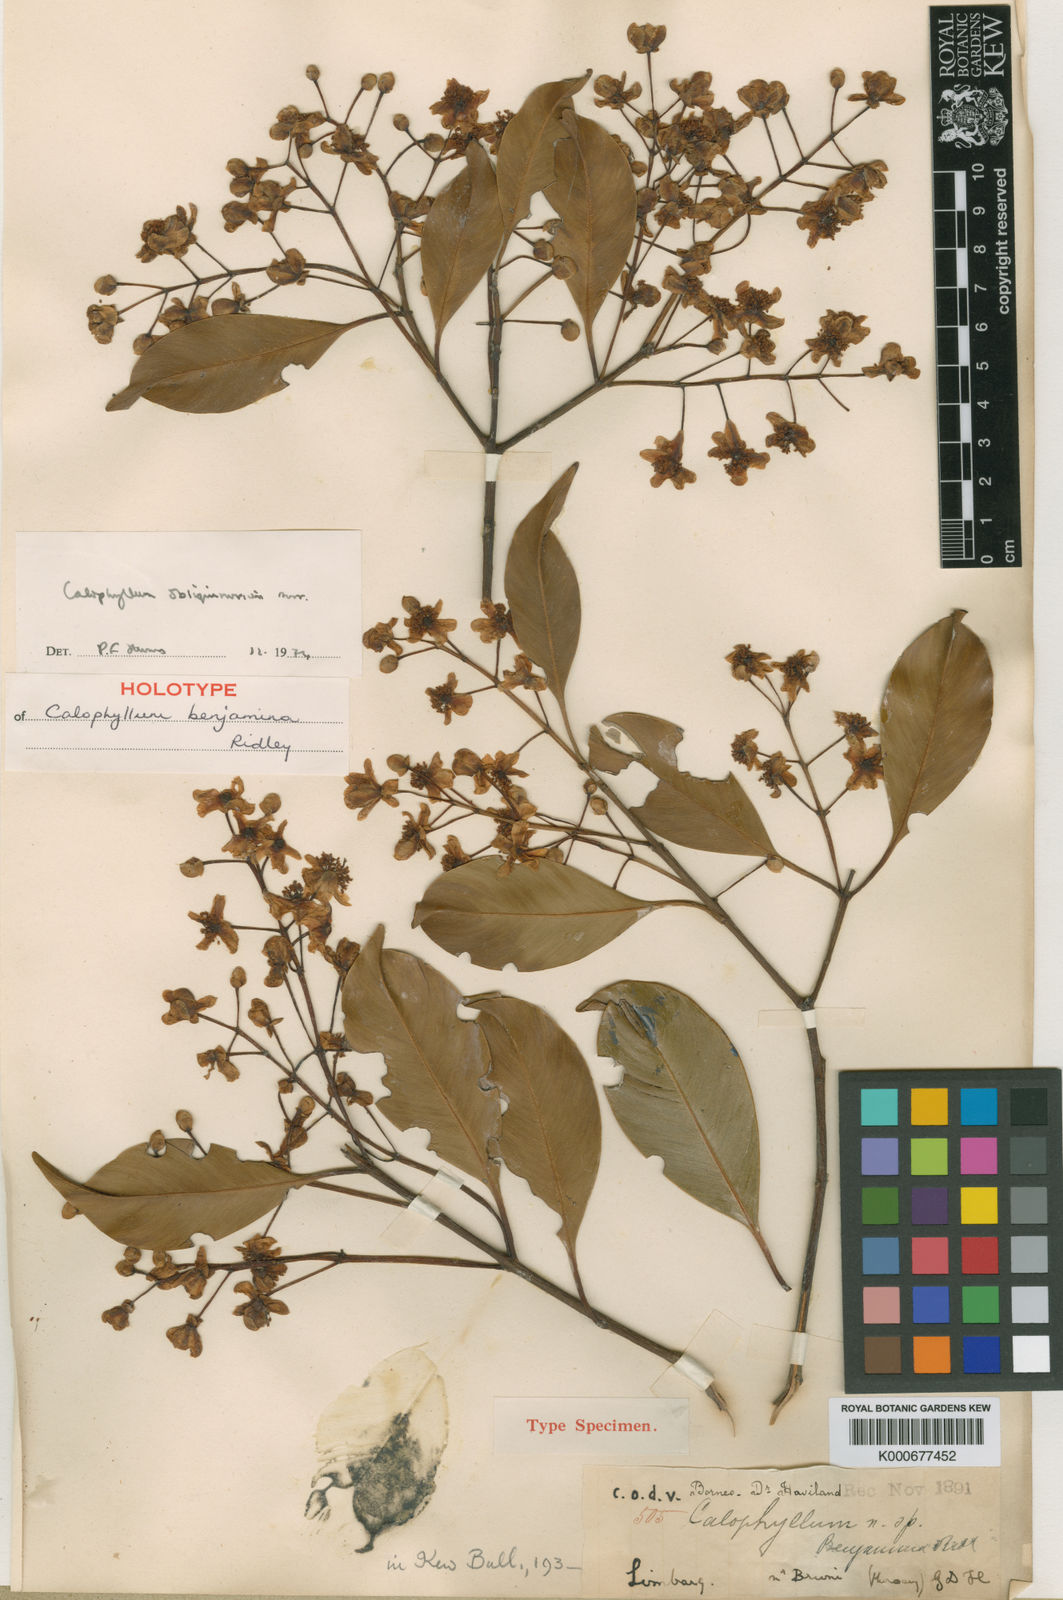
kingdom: Plantae
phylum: Tracheophyta
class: Magnoliopsida
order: Malpighiales
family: Calophyllaceae
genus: Calophyllum
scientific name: Calophyllum obliquinervium
